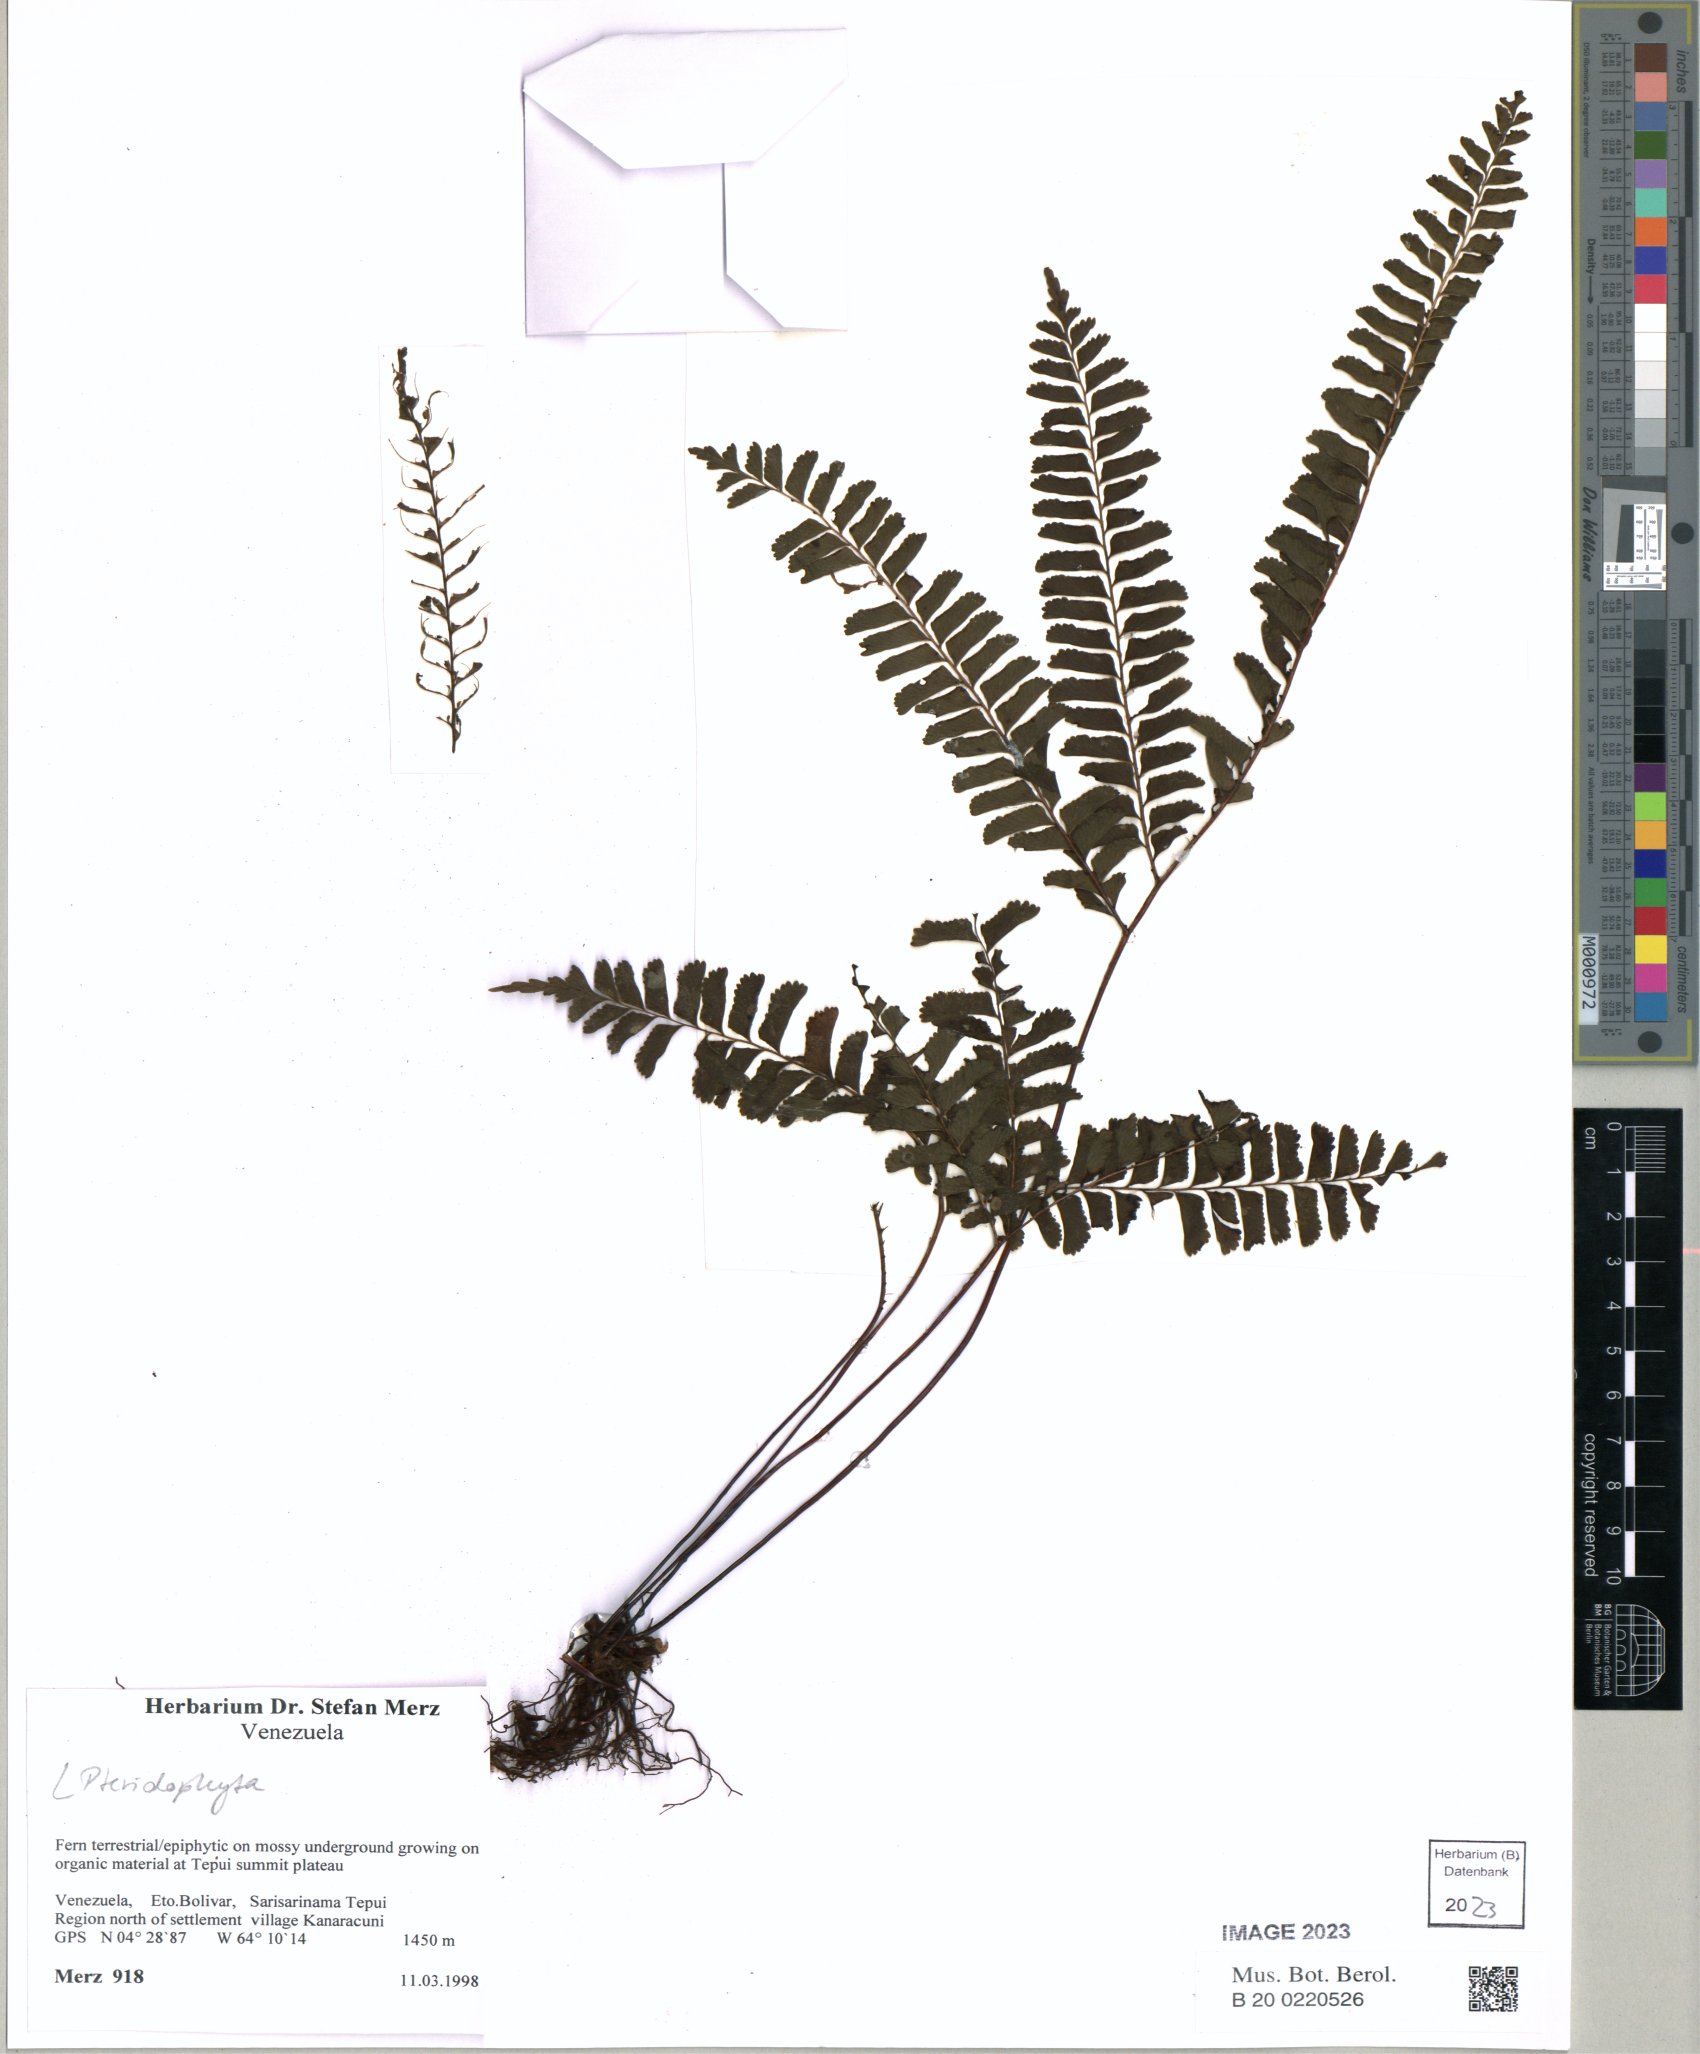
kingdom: Plantae
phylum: Tracheophyta
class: Polypodiopsida
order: Polypodiales
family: Lindsaeaceae
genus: Lindsaea
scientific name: Lindsaea
